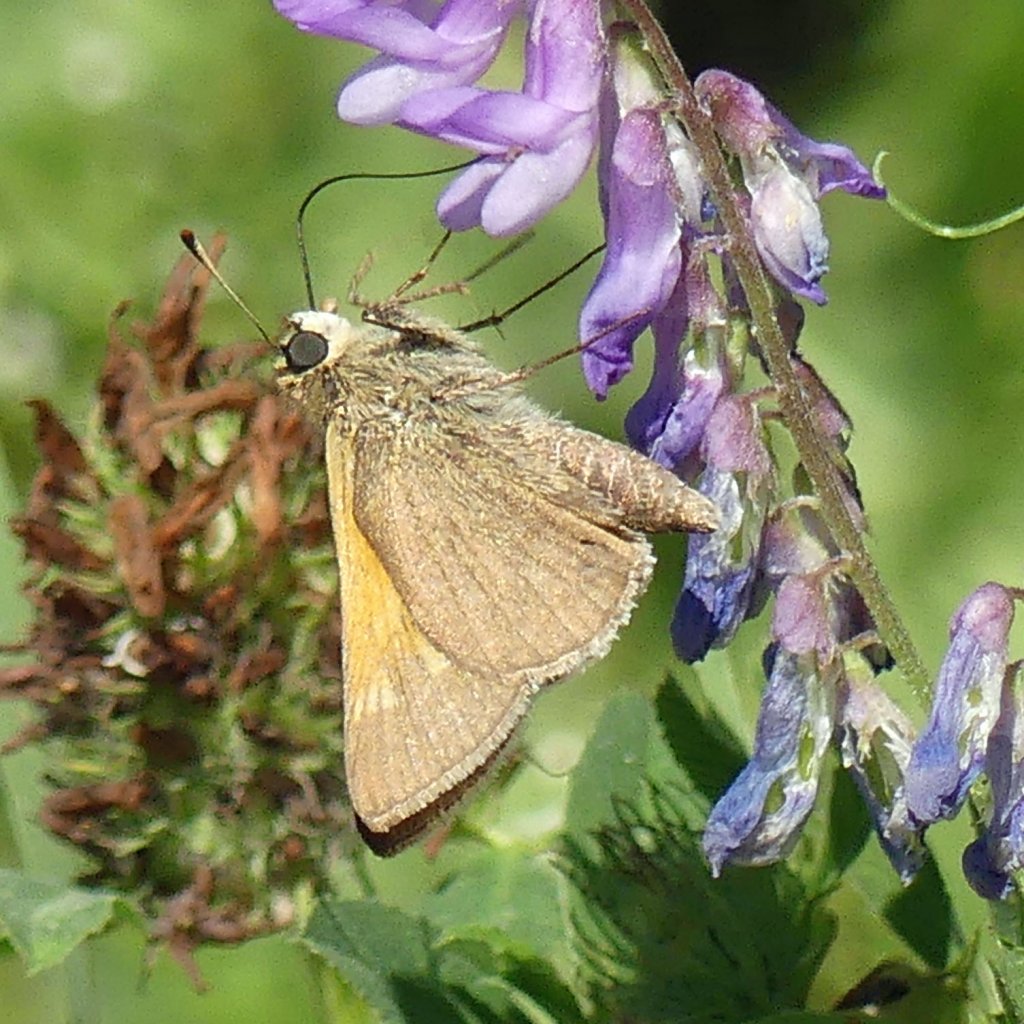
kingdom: Animalia
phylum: Arthropoda
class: Insecta
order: Lepidoptera
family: Hesperiidae
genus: Polites
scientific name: Polites themistocles
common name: Tawny-edged Skipper
